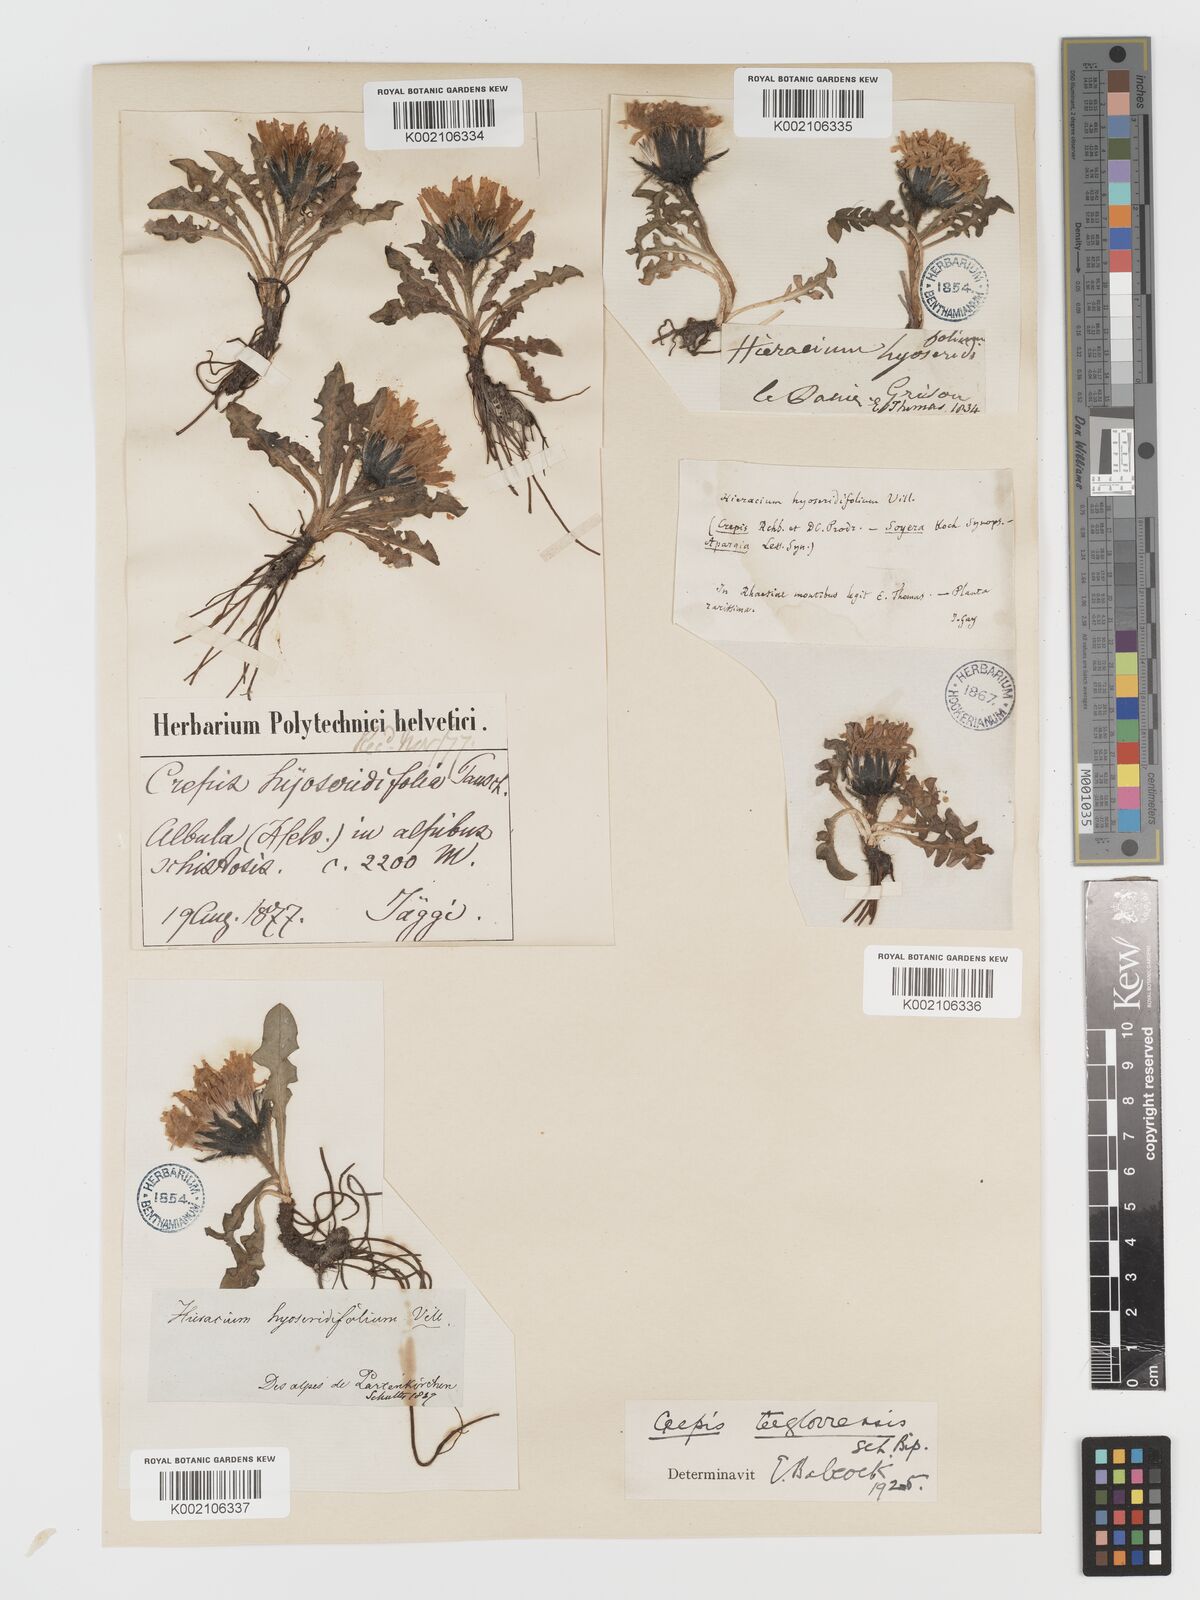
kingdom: Plantae
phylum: Tracheophyta
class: Magnoliopsida
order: Asterales
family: Asteraceae
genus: Crepis
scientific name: Crepis
